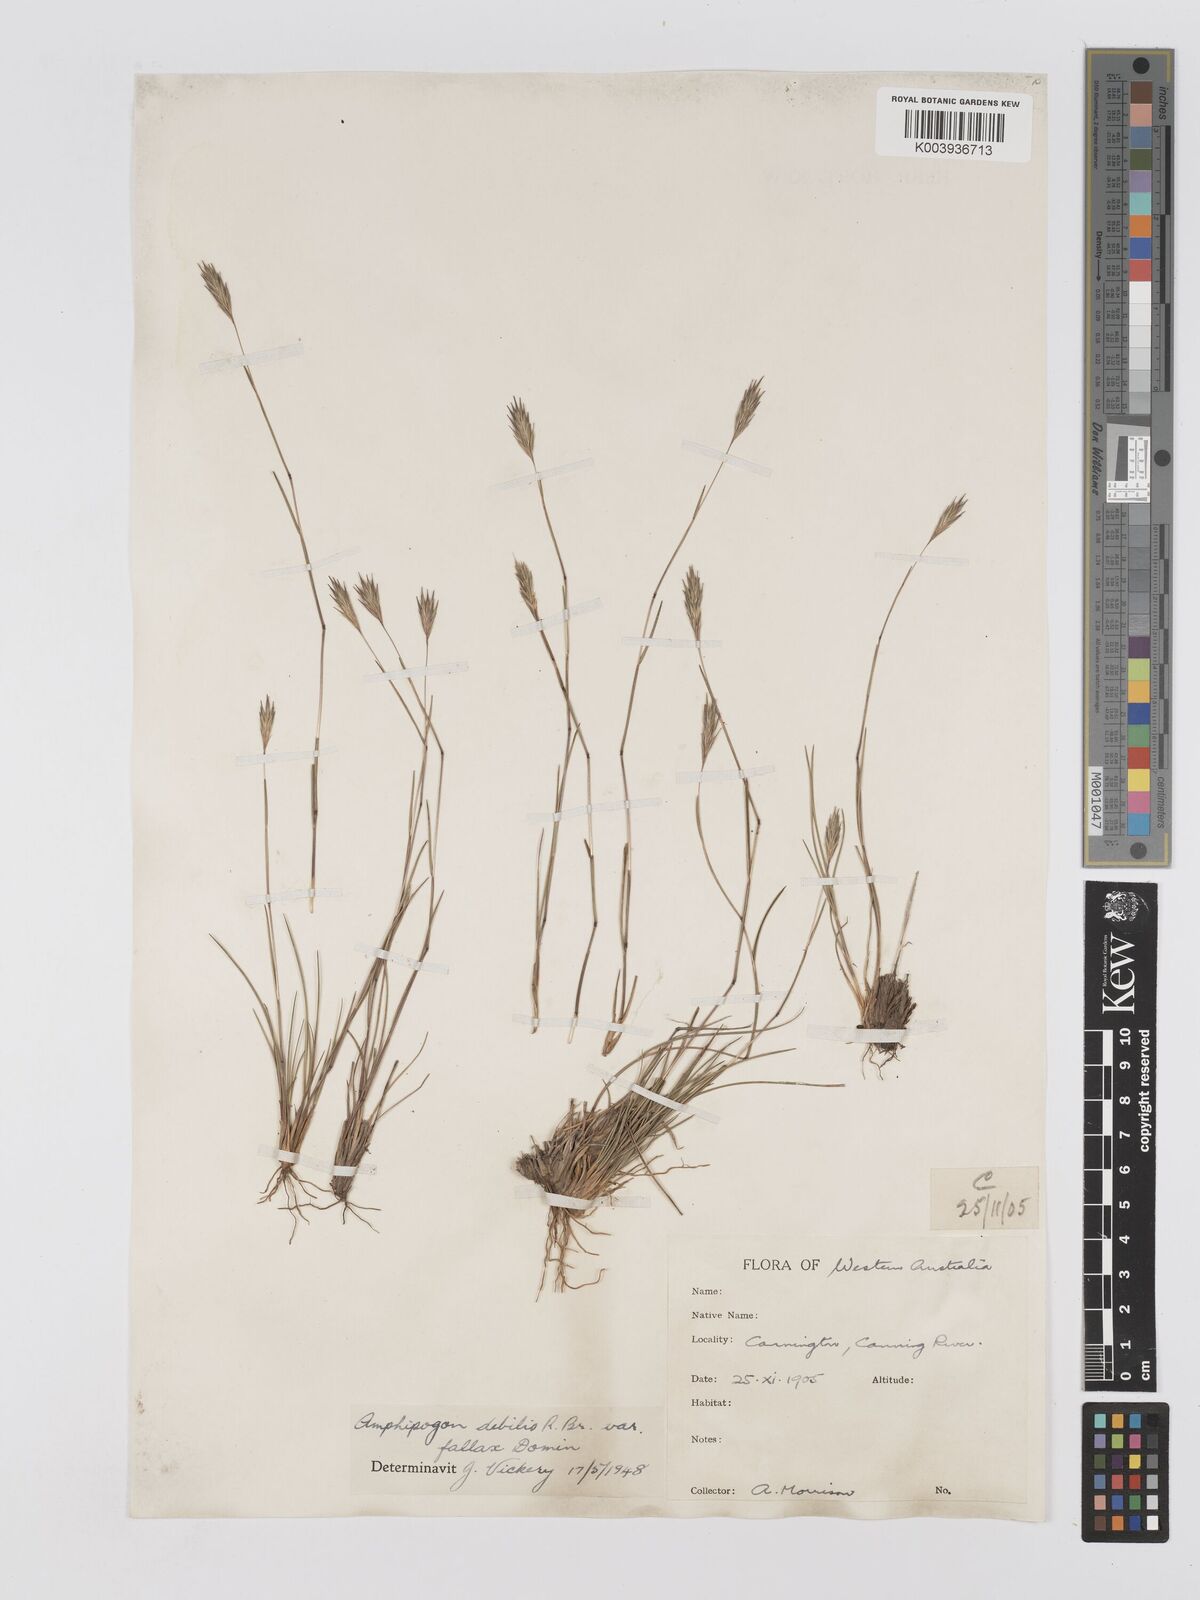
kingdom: Plantae
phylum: Tracheophyta
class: Liliopsida
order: Poales
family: Poaceae
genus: Amphipogon
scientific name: Amphipogon debilis
